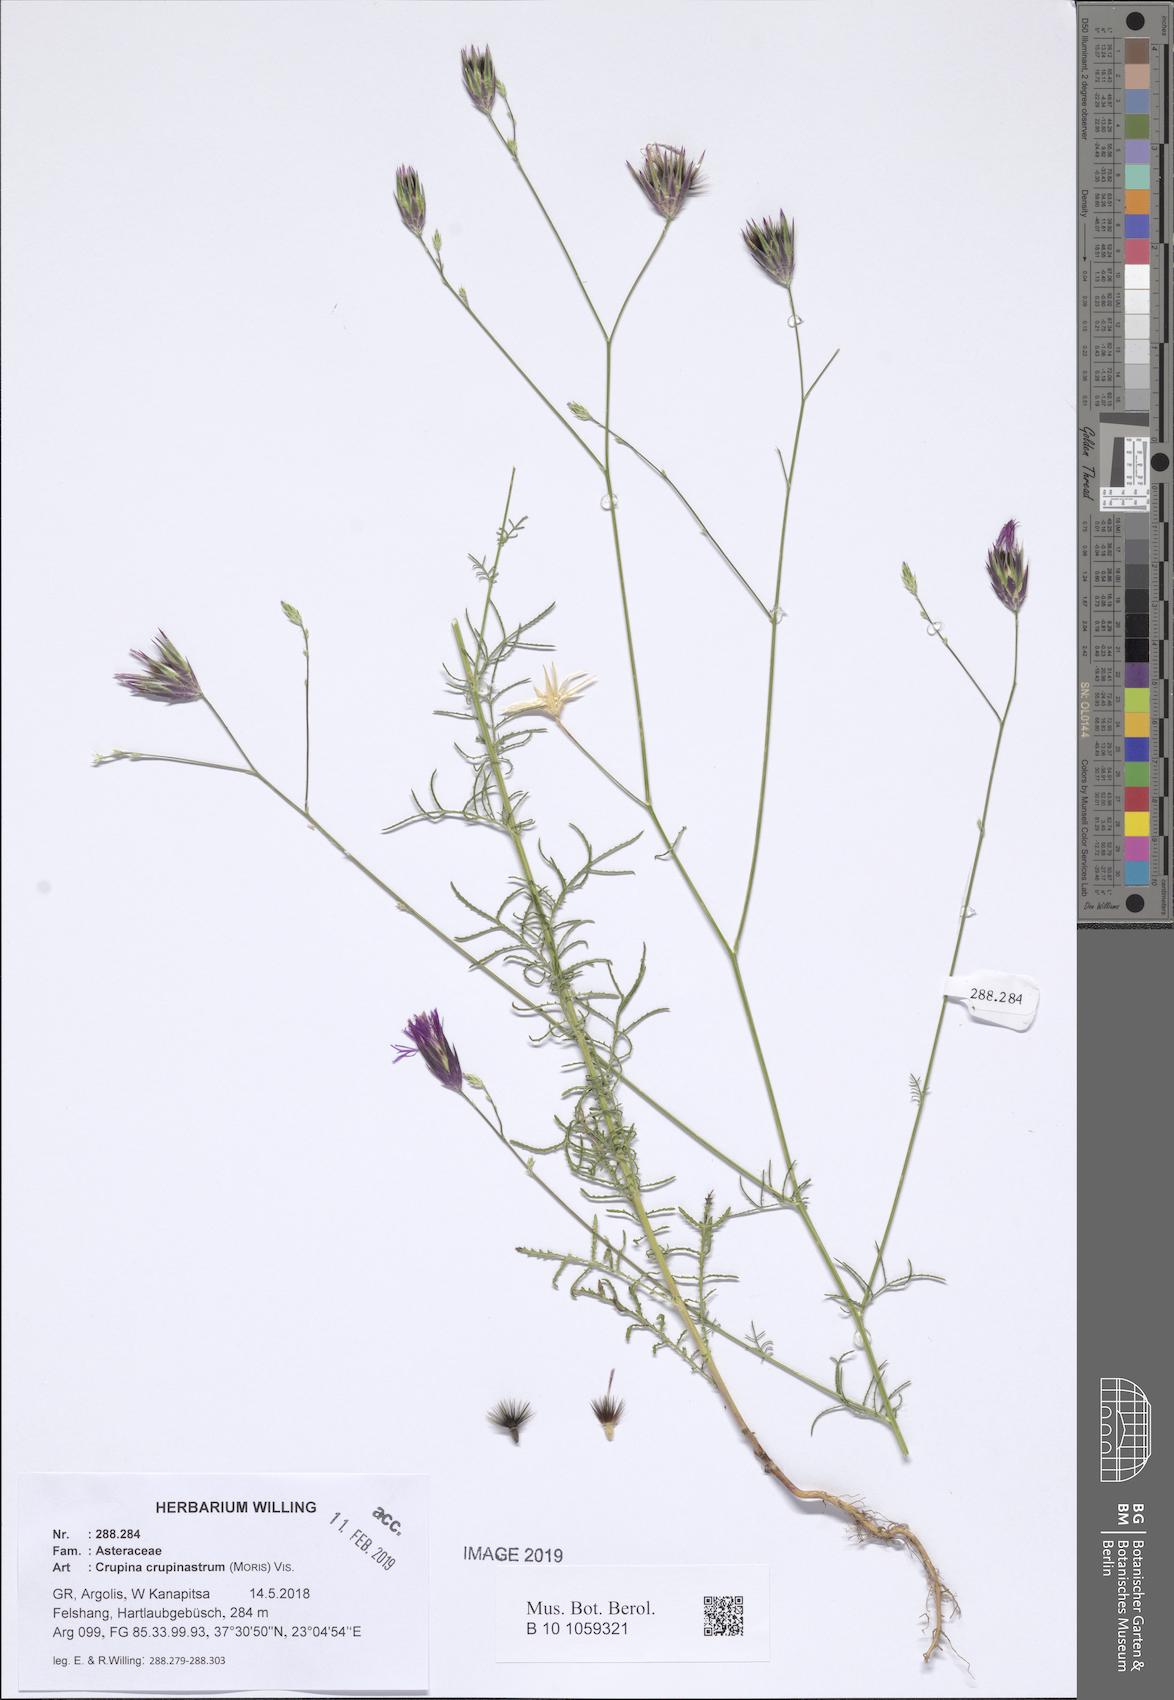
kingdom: Plantae
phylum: Tracheophyta
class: Magnoliopsida
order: Asterales
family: Asteraceae
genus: Crupina
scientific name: Crupina crupinastrum
